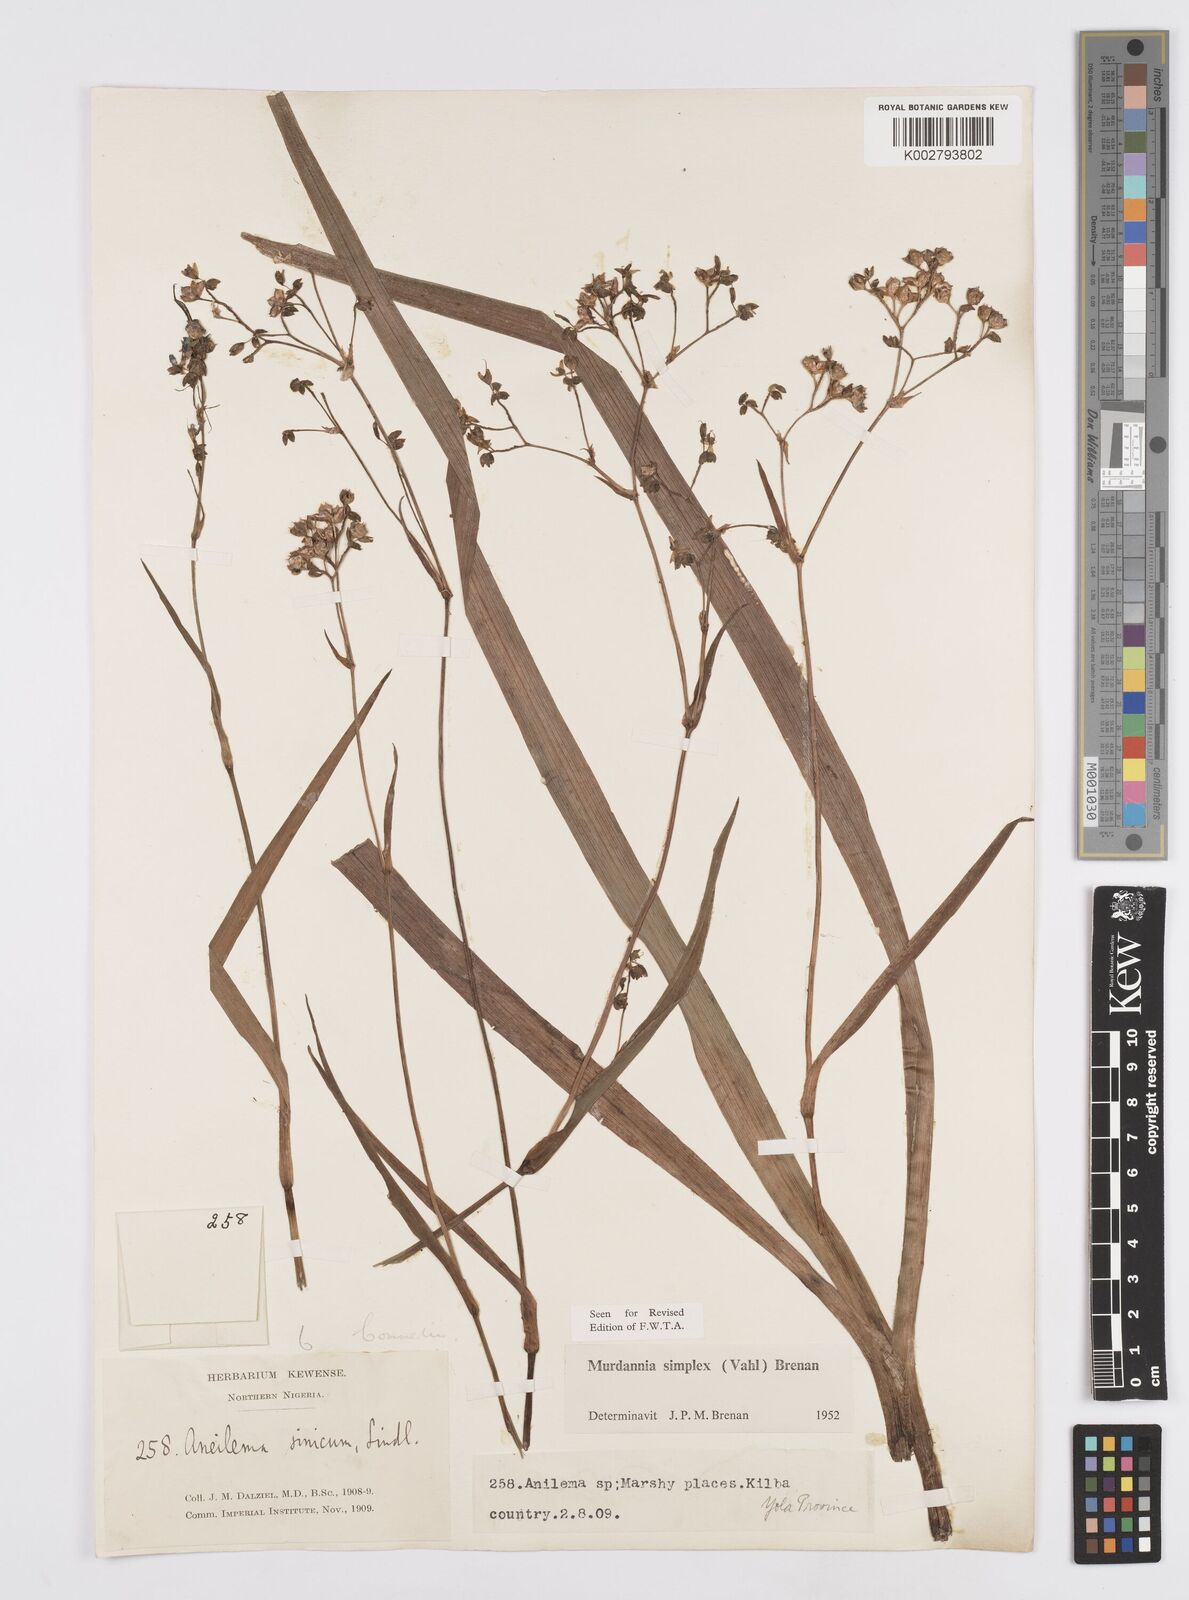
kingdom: Plantae
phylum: Tracheophyta
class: Liliopsida
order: Commelinales
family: Commelinaceae
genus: Murdannia
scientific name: Murdannia simplex
